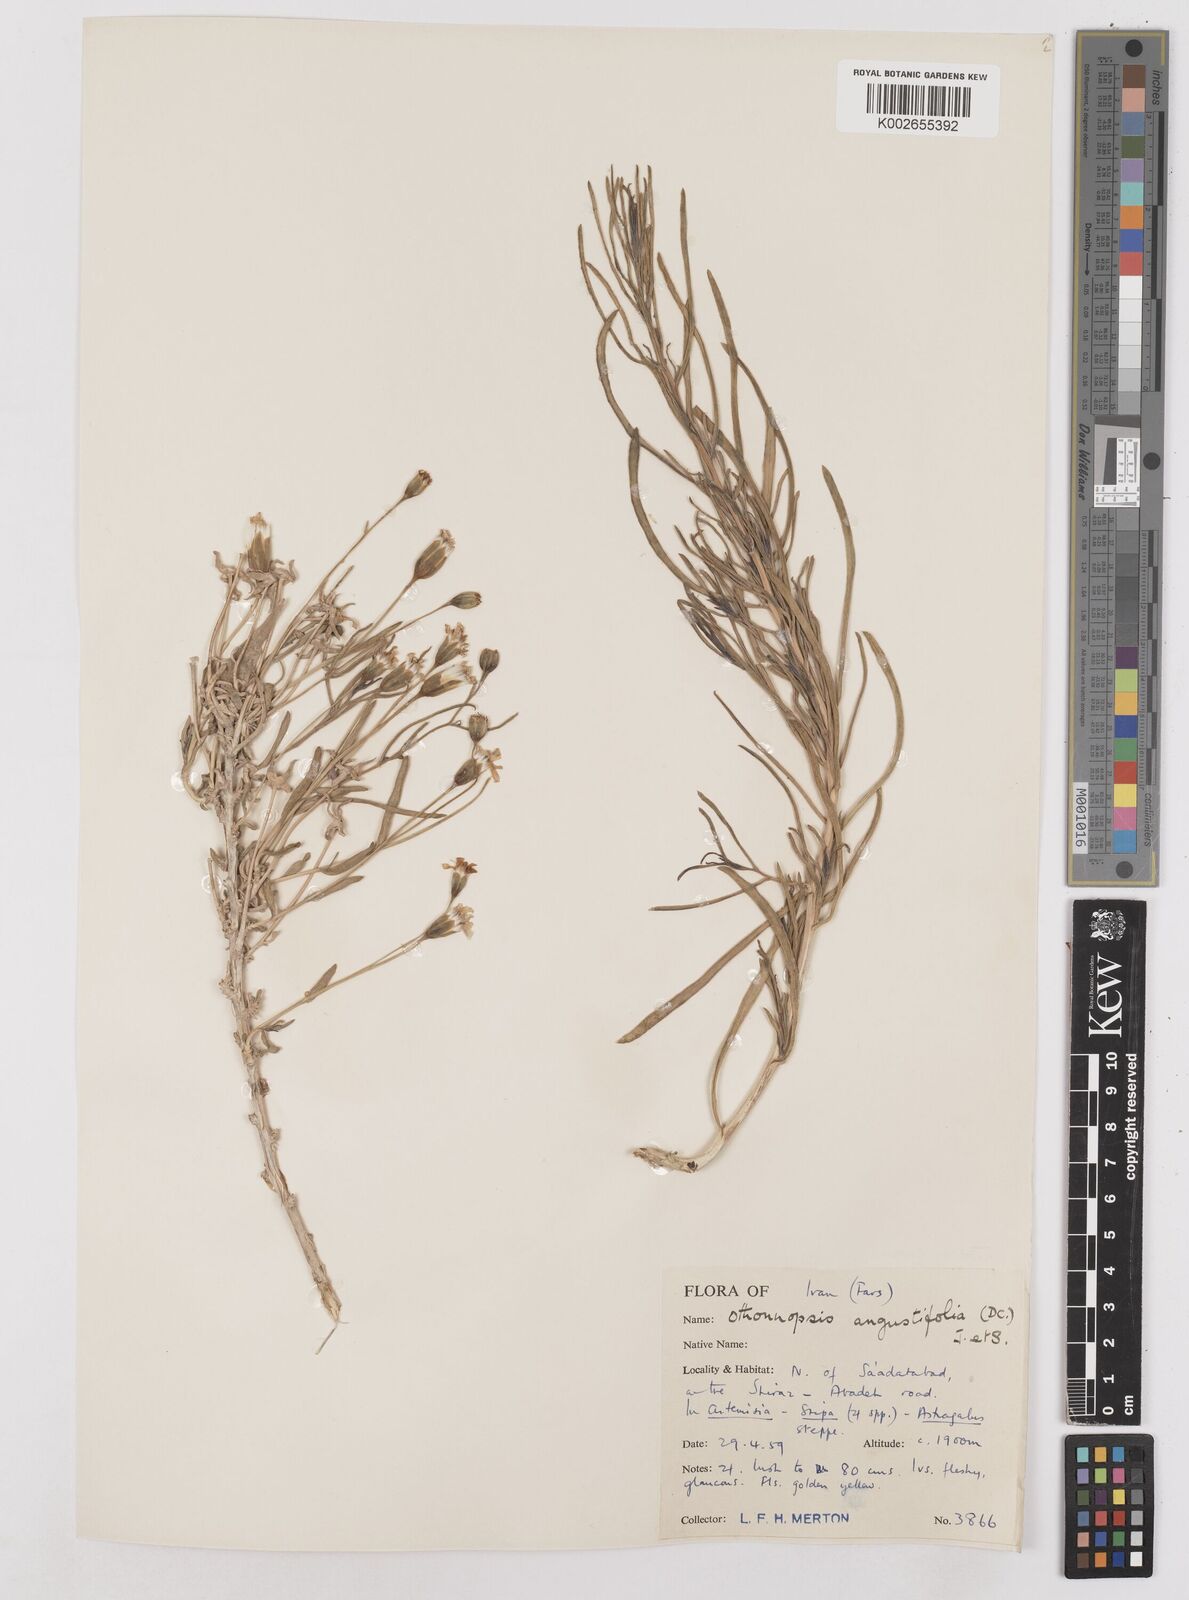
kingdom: Plantae
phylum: Tracheophyta
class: Magnoliopsida
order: Asterales
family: Asteraceae
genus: Hertia
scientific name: Hertia angustifolia
